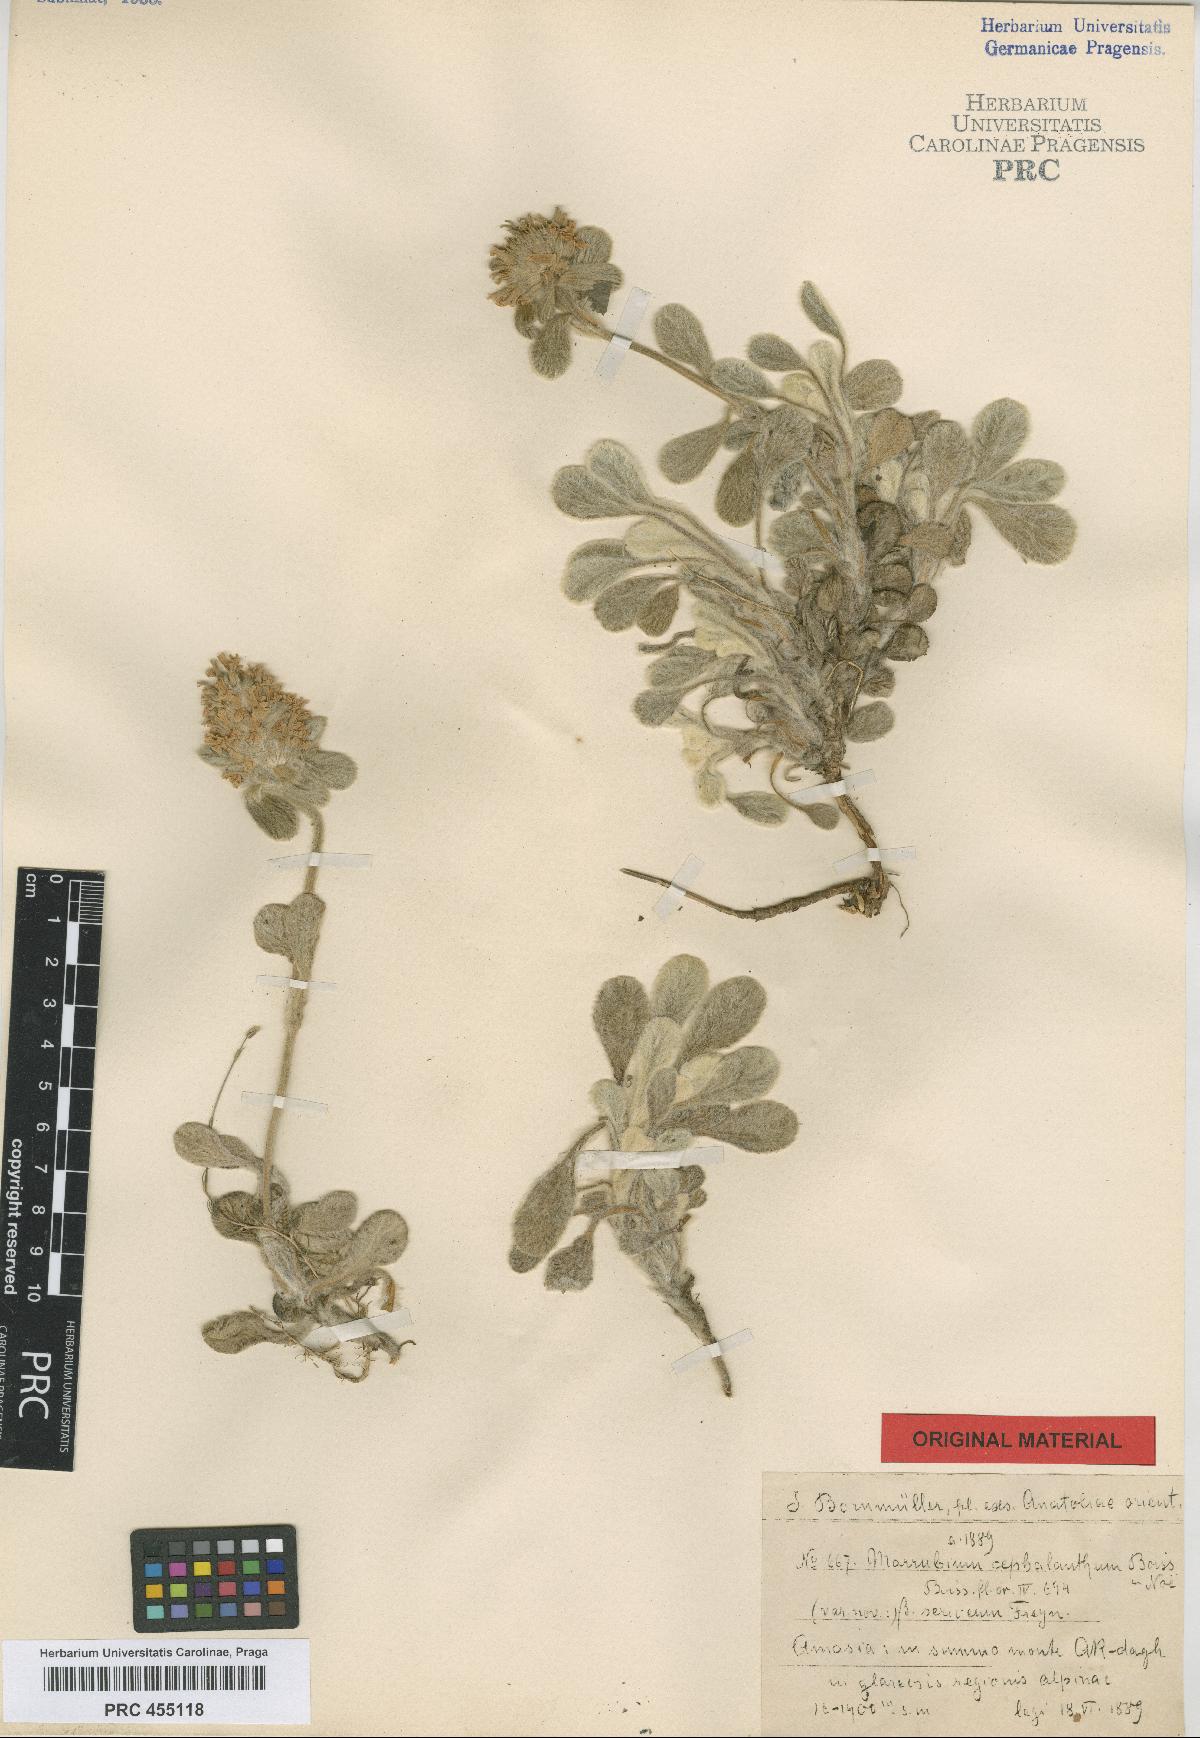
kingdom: Plantae
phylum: Tracheophyta
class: Magnoliopsida
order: Lamiales
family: Lamiaceae
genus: Marrubium
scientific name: Marrubium cephalanthum
